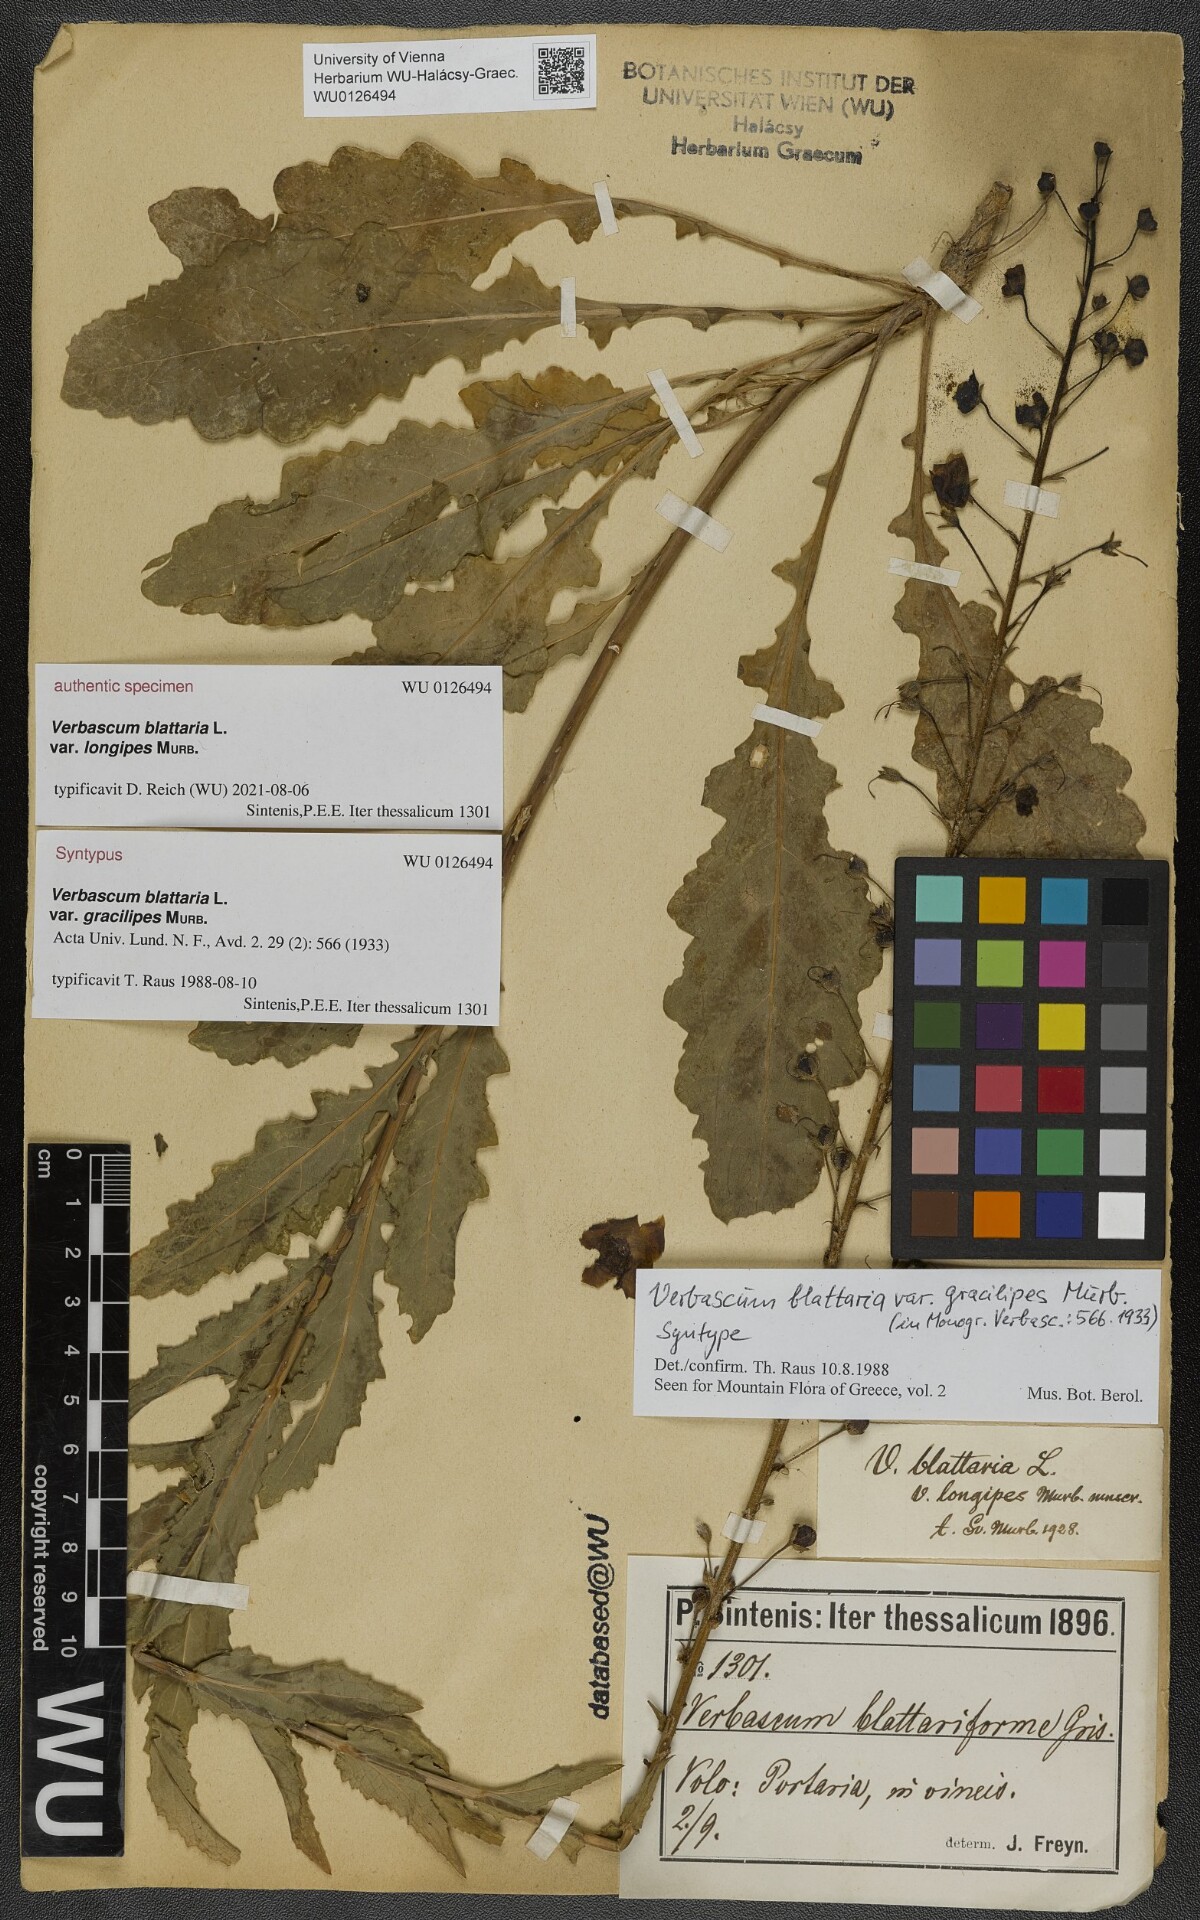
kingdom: Plantae
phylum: Tracheophyta
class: Magnoliopsida
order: Lamiales
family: Scrophulariaceae
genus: Verbascum
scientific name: Verbascum blattaria
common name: Moth mullein
